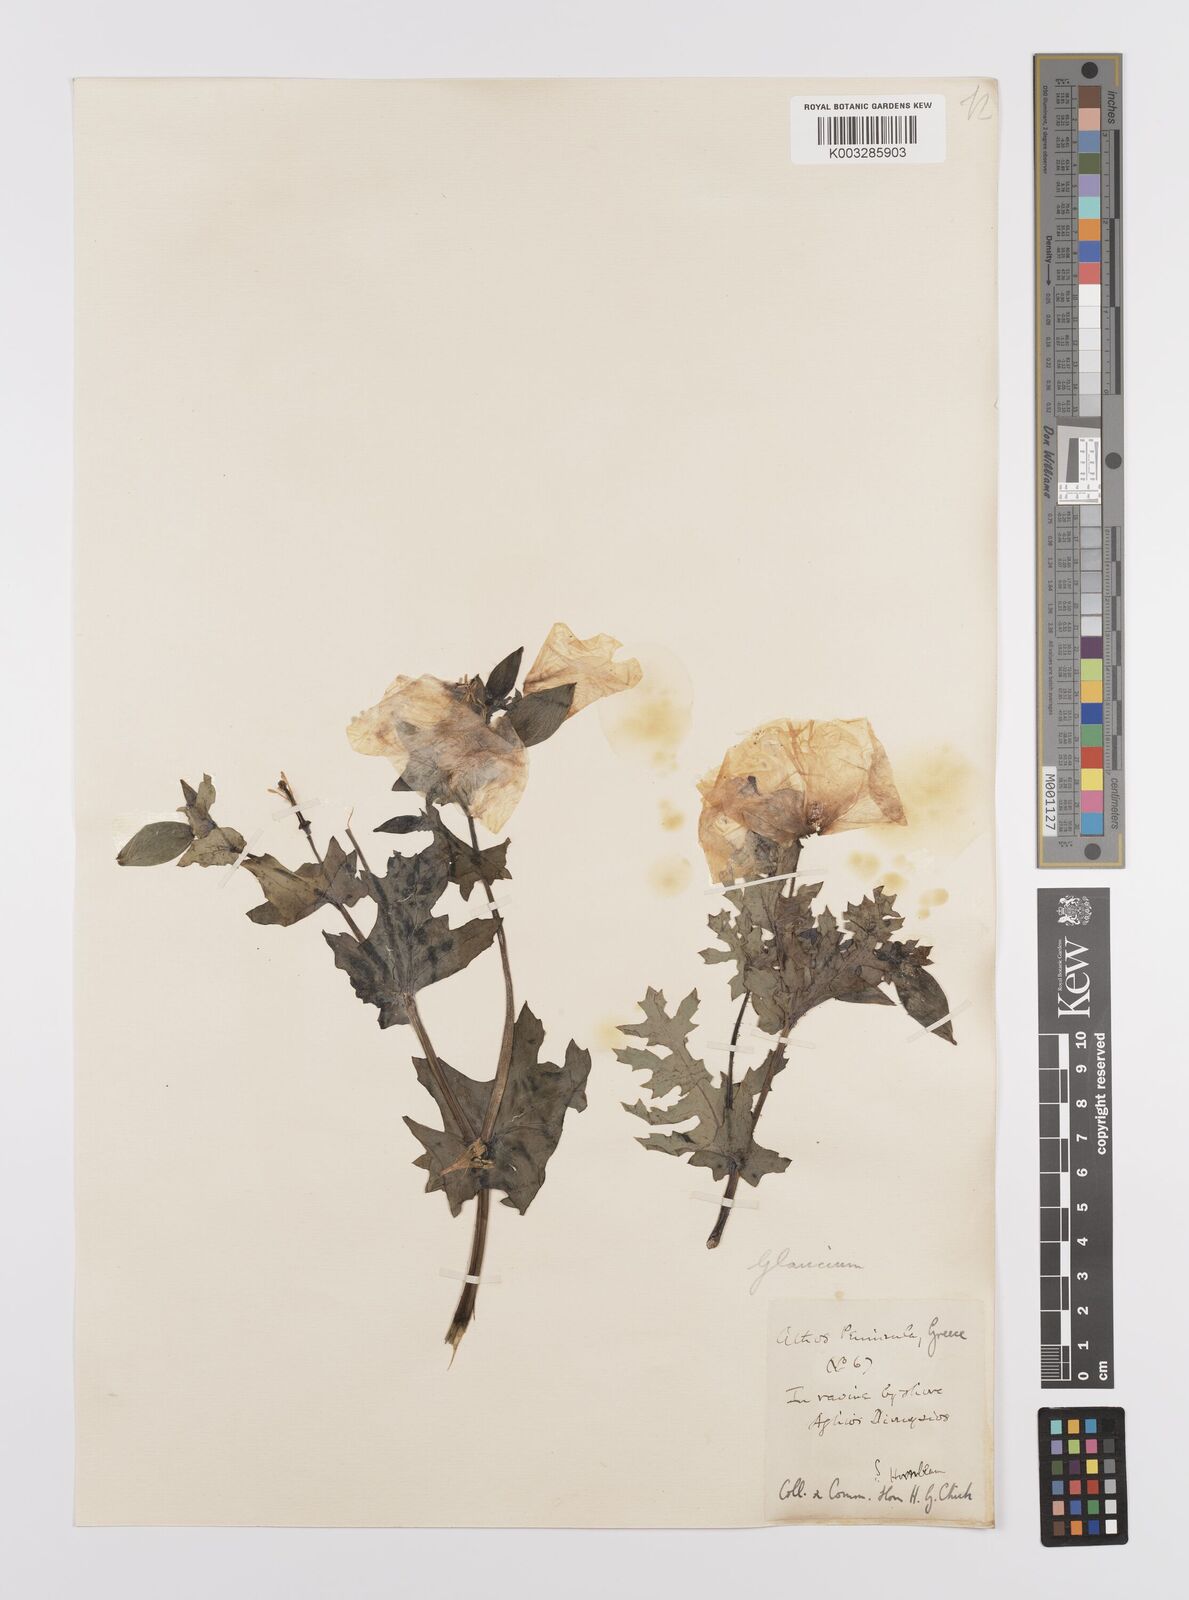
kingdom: Plantae
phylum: Tracheophyta
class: Magnoliopsida
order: Ranunculales
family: Papaveraceae
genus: Glaucium
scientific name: Glaucium flavum
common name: Yellow horned-poppy
